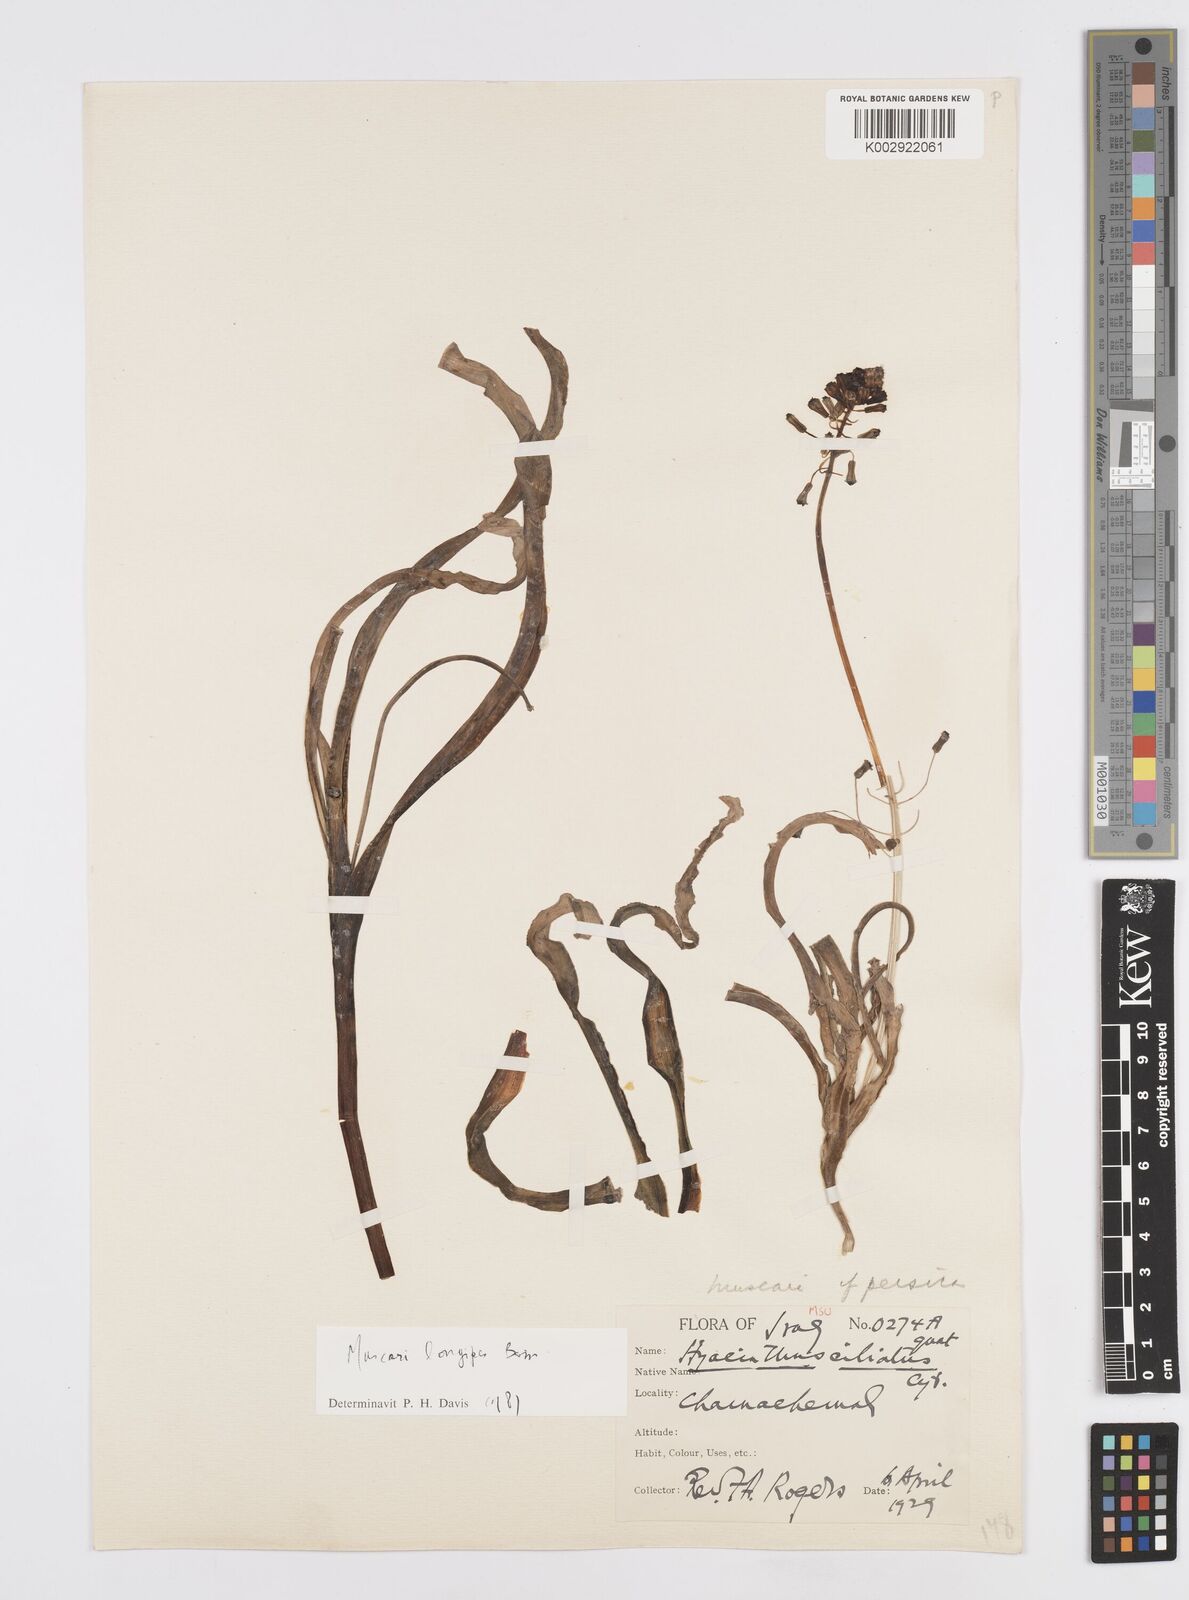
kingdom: Animalia
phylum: Mollusca
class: Cephalopoda
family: Neocomitidae
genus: Leopoldia
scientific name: Leopoldia
